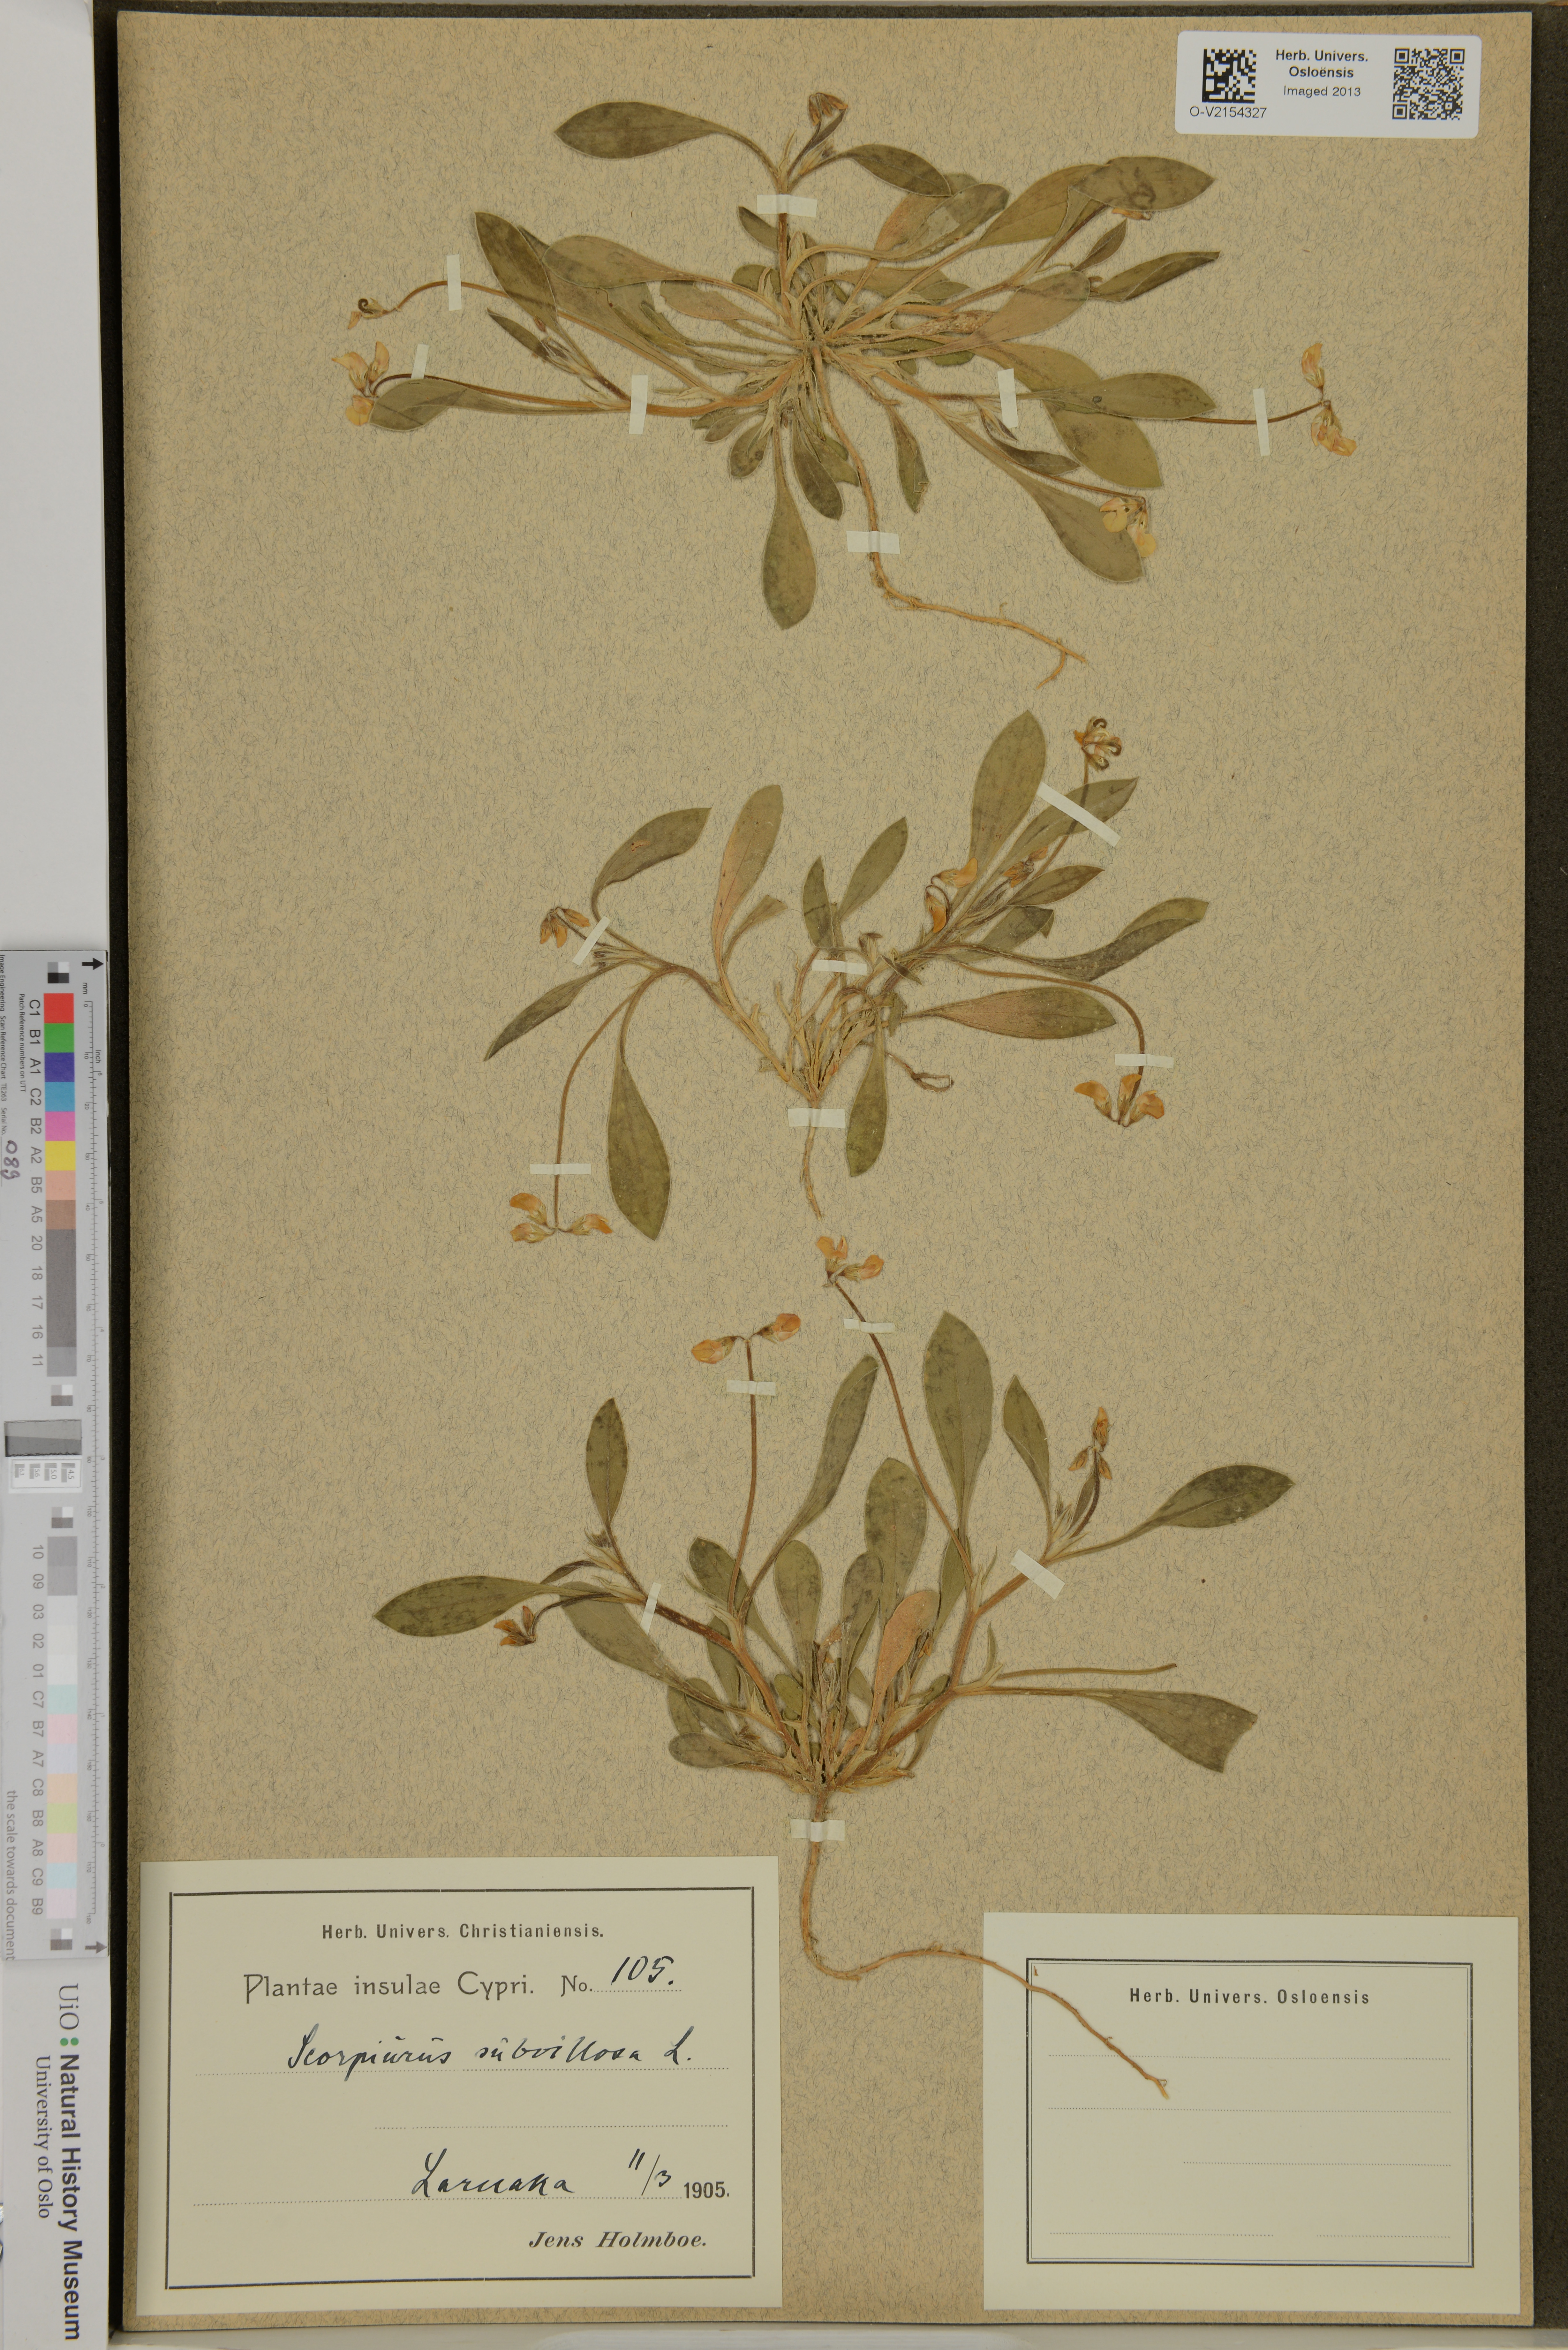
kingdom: Plantae
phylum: Tracheophyta
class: Magnoliopsida
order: Fabales
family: Fabaceae
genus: Scorpiurus
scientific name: Scorpiurus subvillosus
